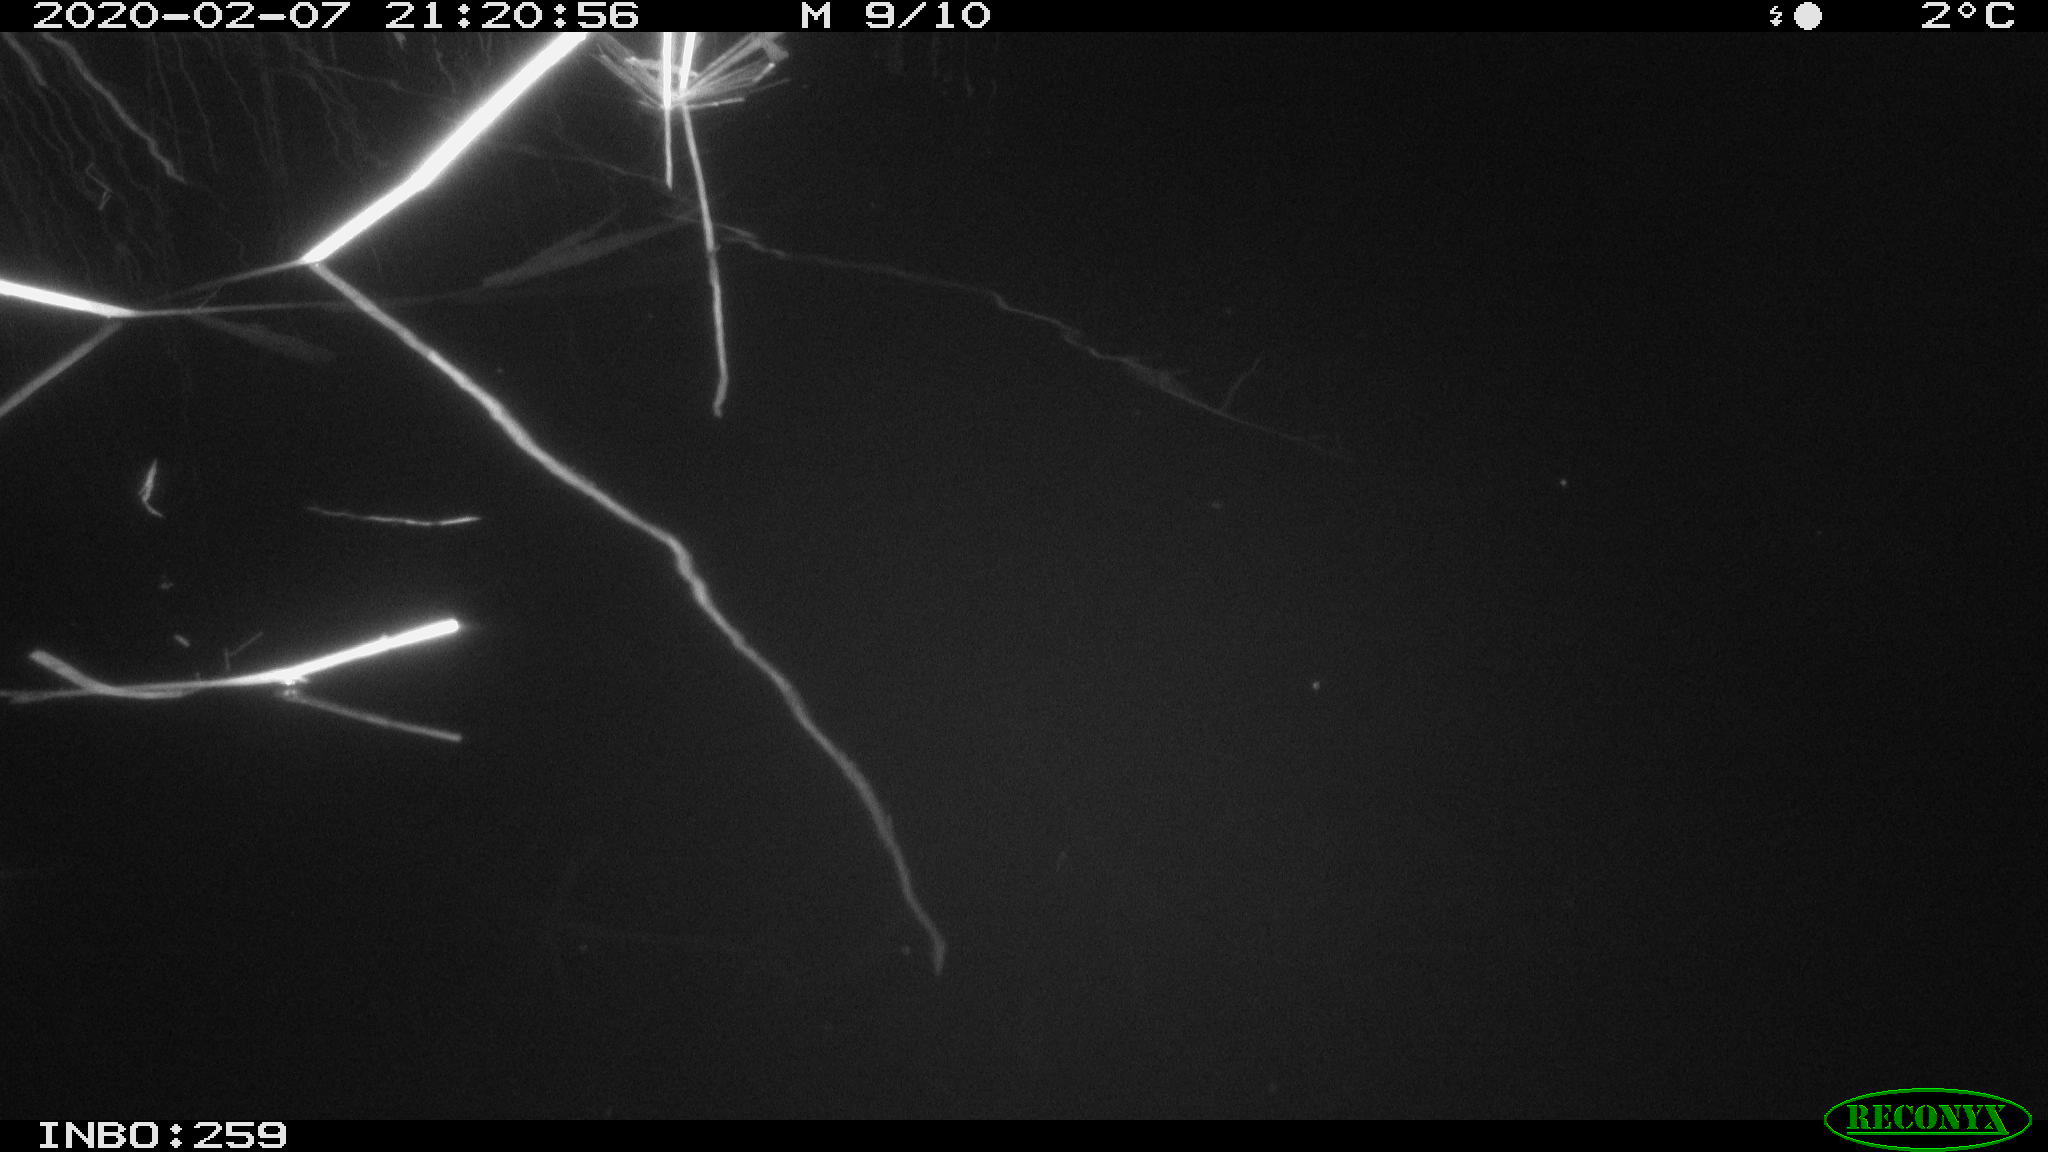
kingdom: Animalia
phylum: Chordata
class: Aves
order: Gruiformes
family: Rallidae
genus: Gallinula
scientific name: Gallinula chloropus
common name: Common moorhen
